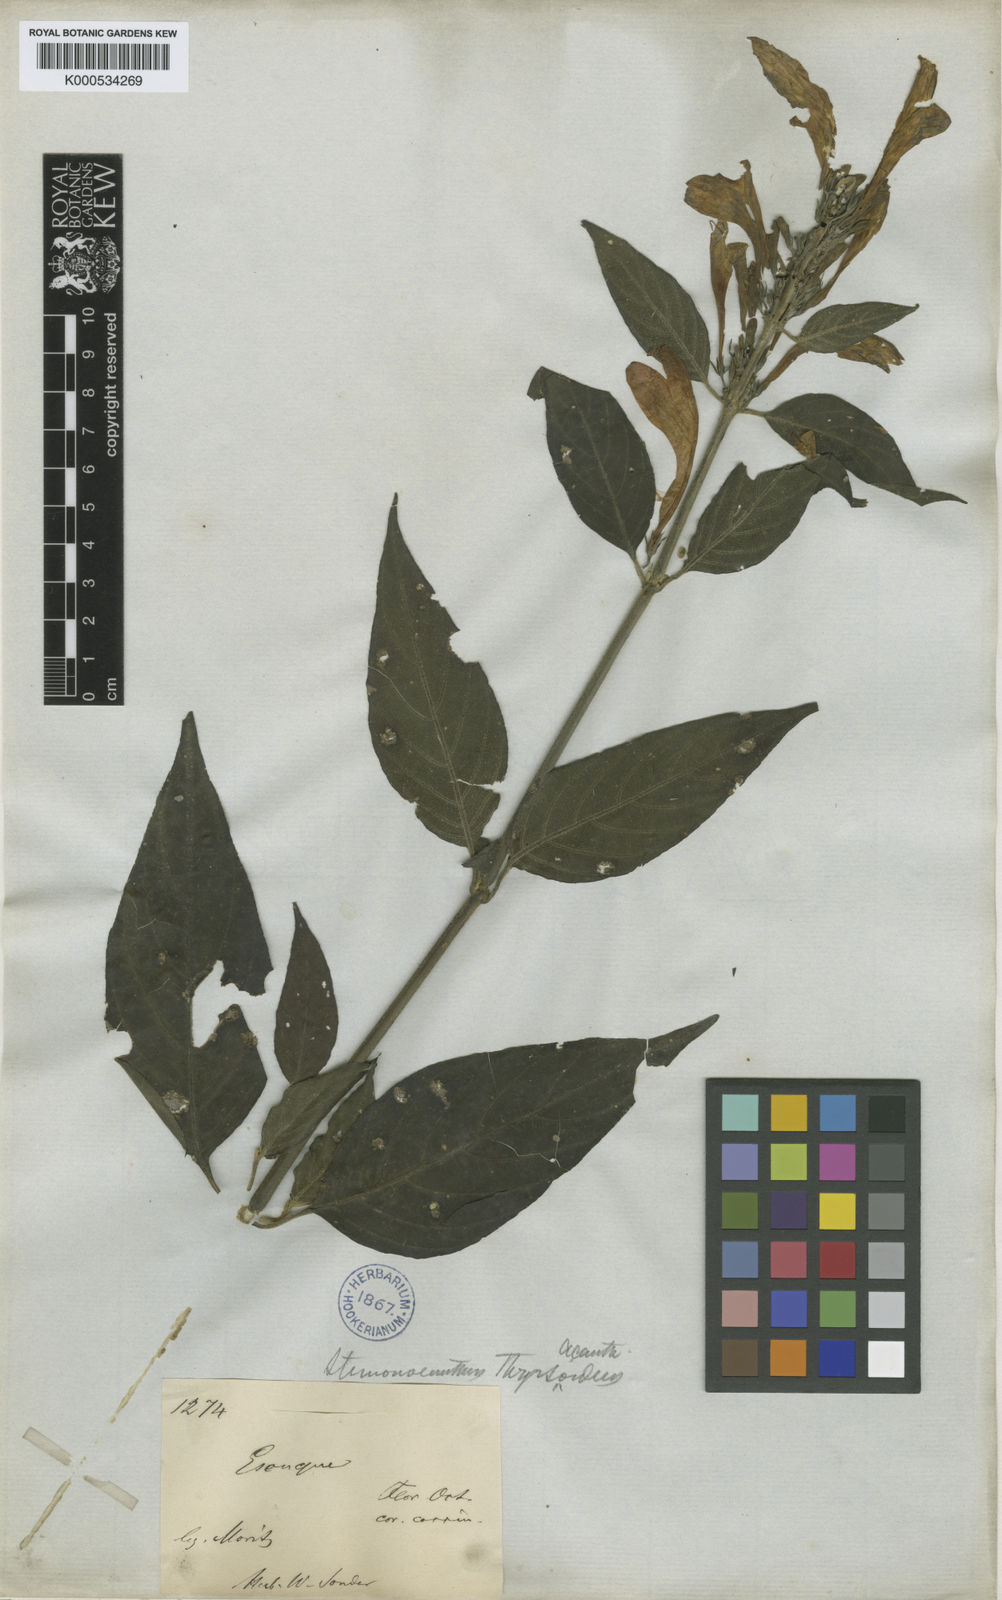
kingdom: Plantae
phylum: Tracheophyta
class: Magnoliopsida
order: Lamiales
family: Acanthaceae
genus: Ruellia
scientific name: Ruellia humboldtiana
